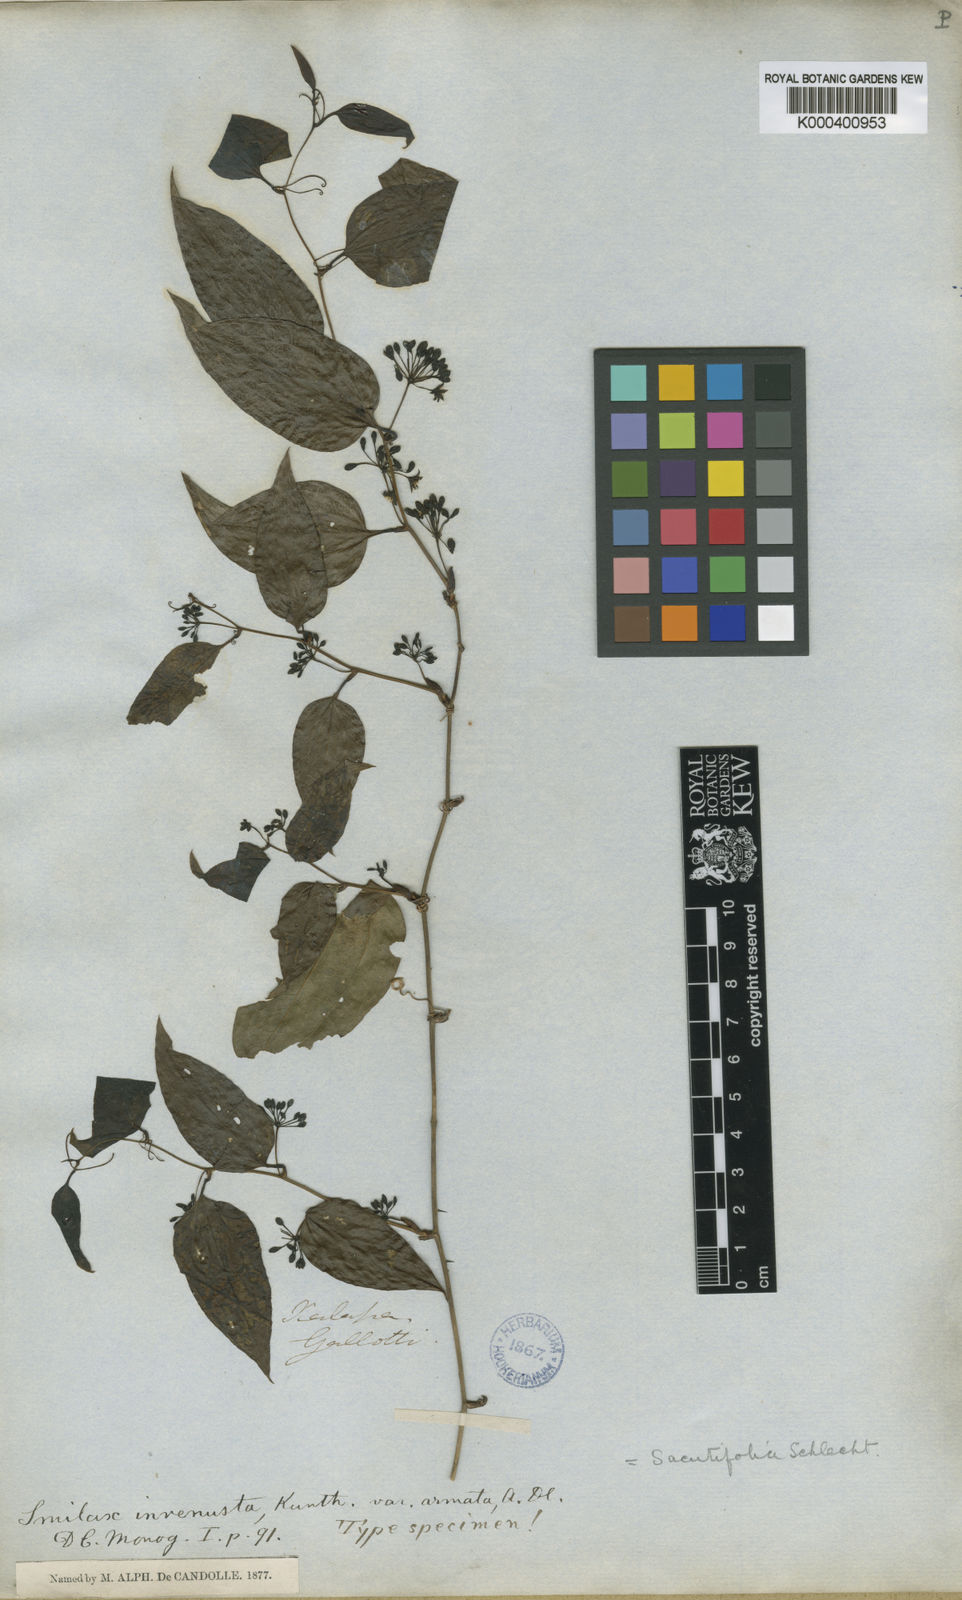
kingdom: Plantae
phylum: Tracheophyta
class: Liliopsida
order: Liliales
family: Smilacaceae
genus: Smilax
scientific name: Smilax moranensis
